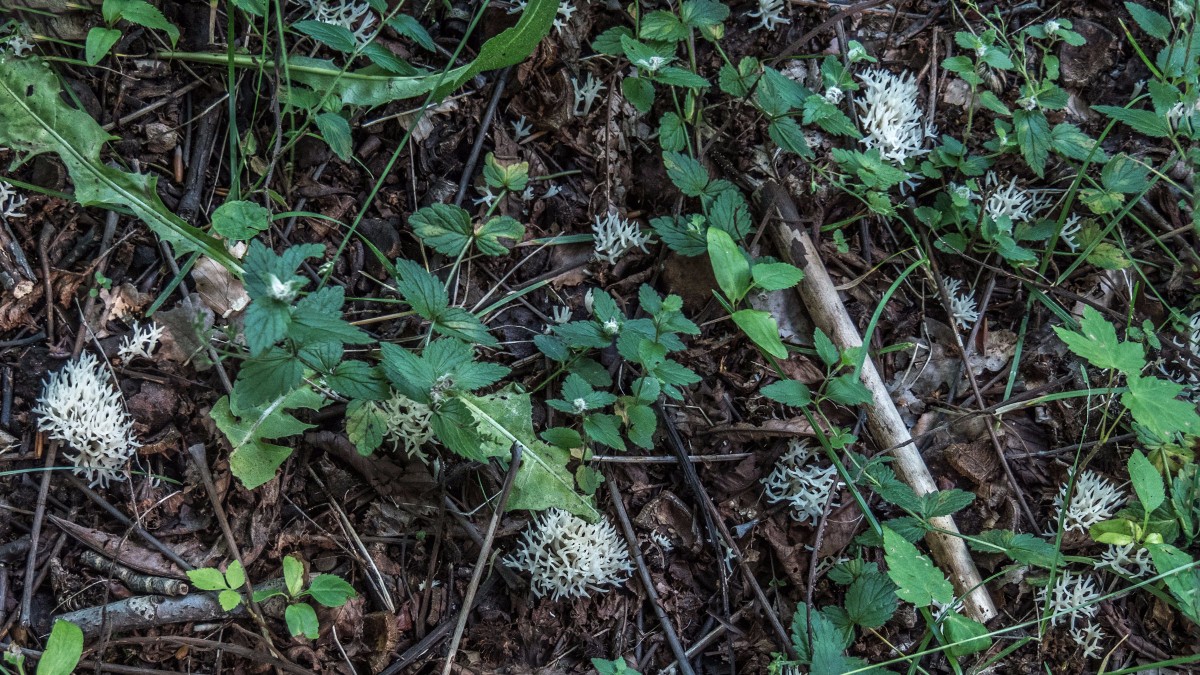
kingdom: Fungi
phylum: Basidiomycota
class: Agaricomycetes
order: Agaricales
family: Clavariaceae
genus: Ramariopsis
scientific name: Ramariopsis kunzei
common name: mangegrenet køllesvamp
